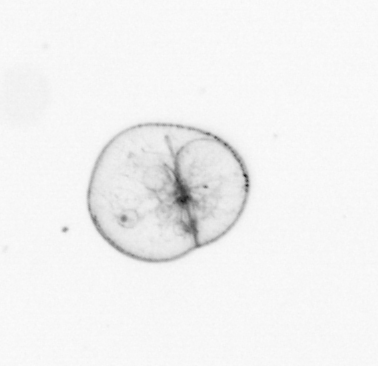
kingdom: Chromista
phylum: Myzozoa
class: Dinophyceae
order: Noctilucales
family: Noctilucaceae
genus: Noctiluca
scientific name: Noctiluca scintillans
